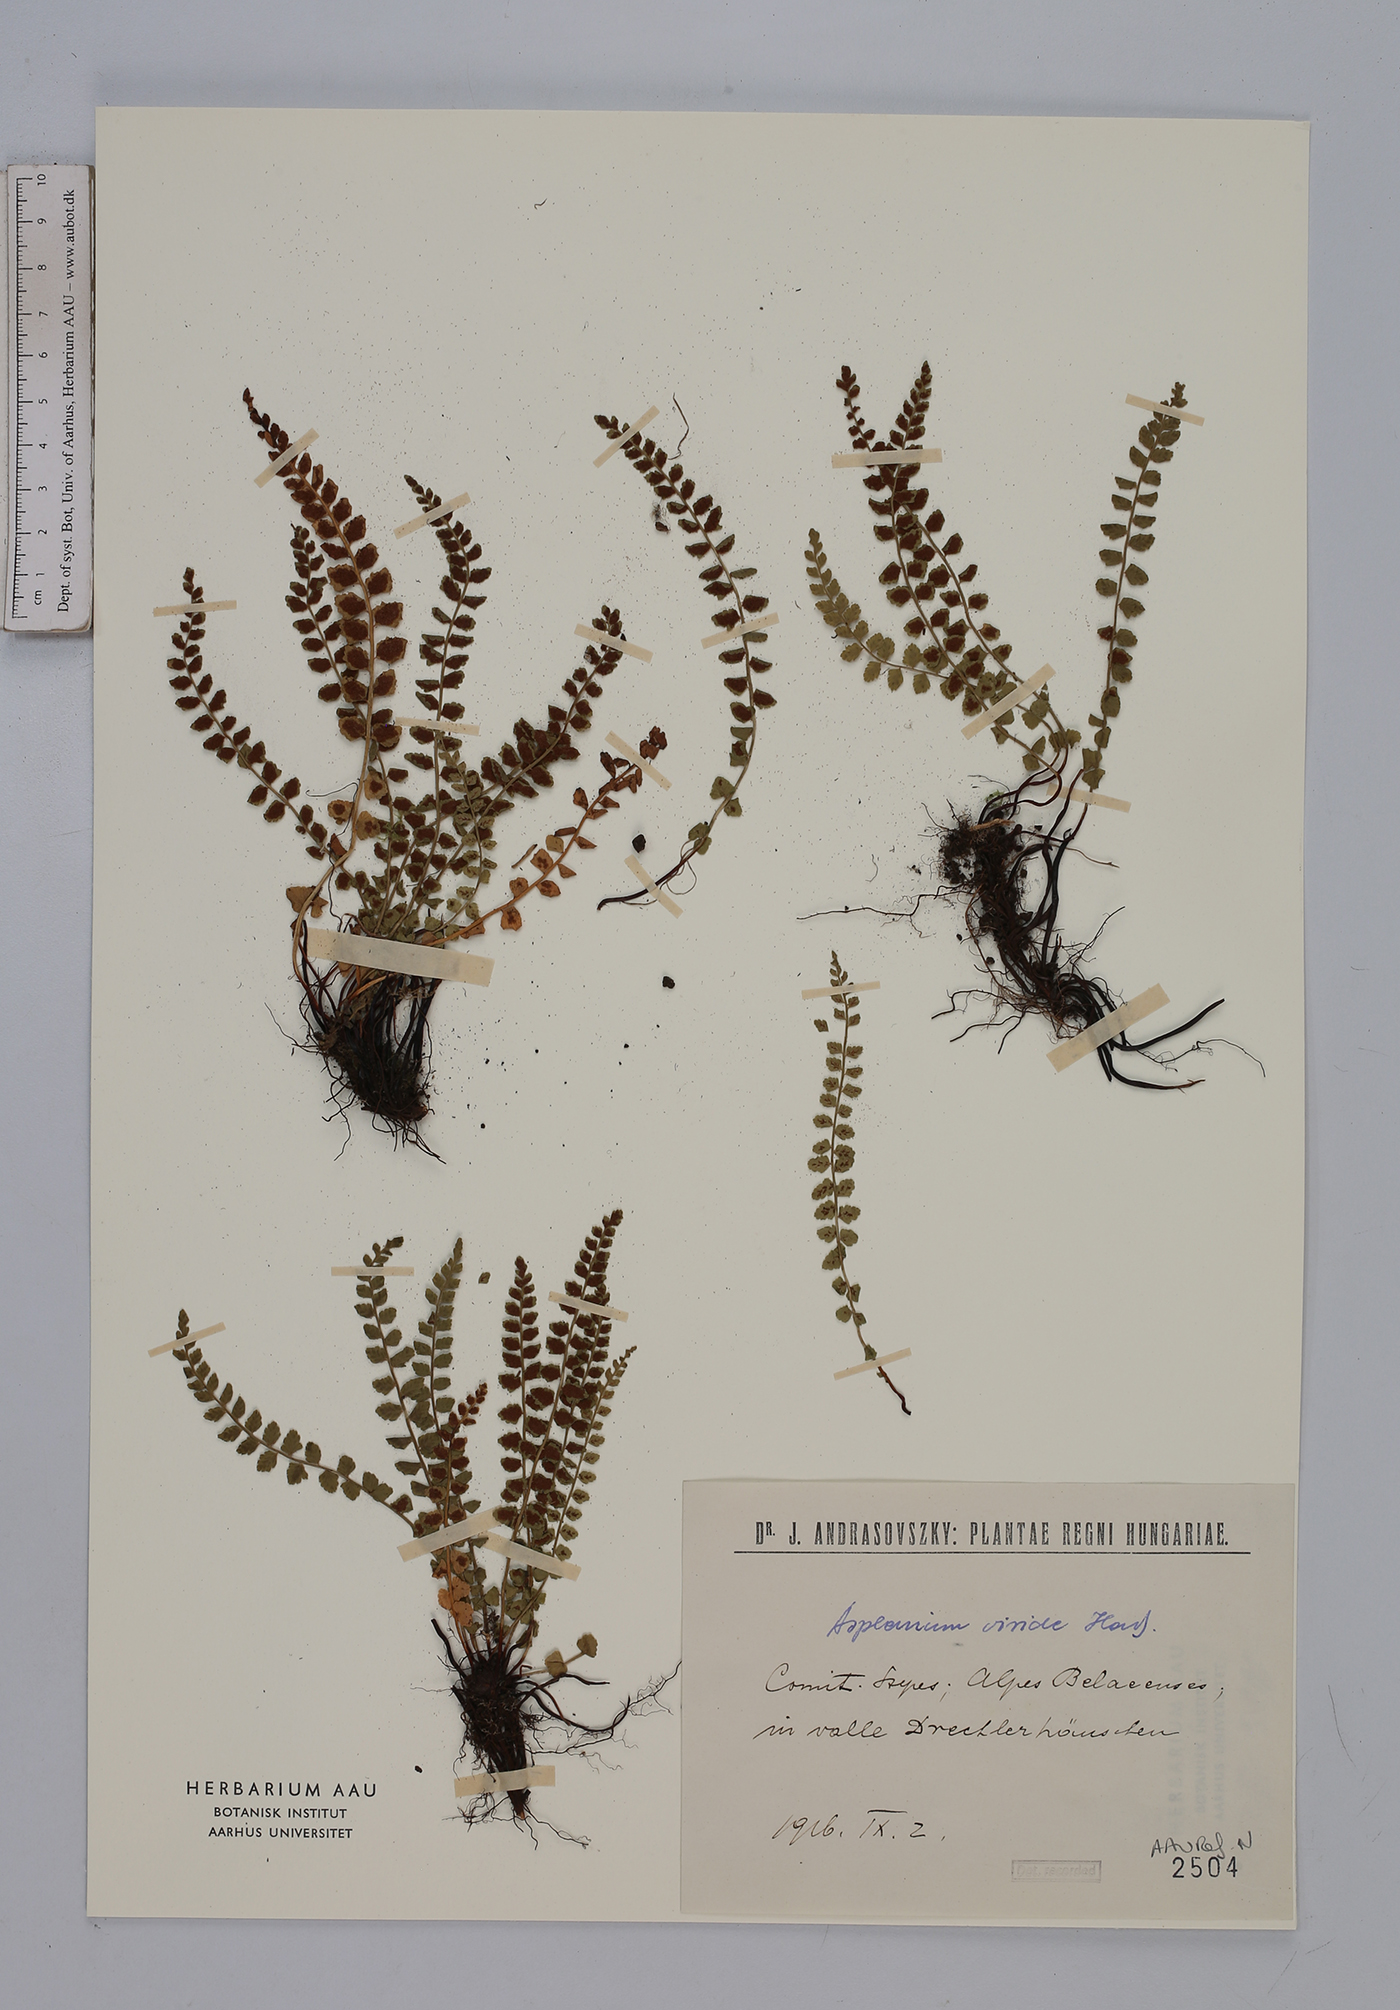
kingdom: Plantae
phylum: Tracheophyta
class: Polypodiopsida
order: Polypodiales
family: Aspleniaceae
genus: Asplenium
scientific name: Asplenium viride
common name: Green spleenwort
